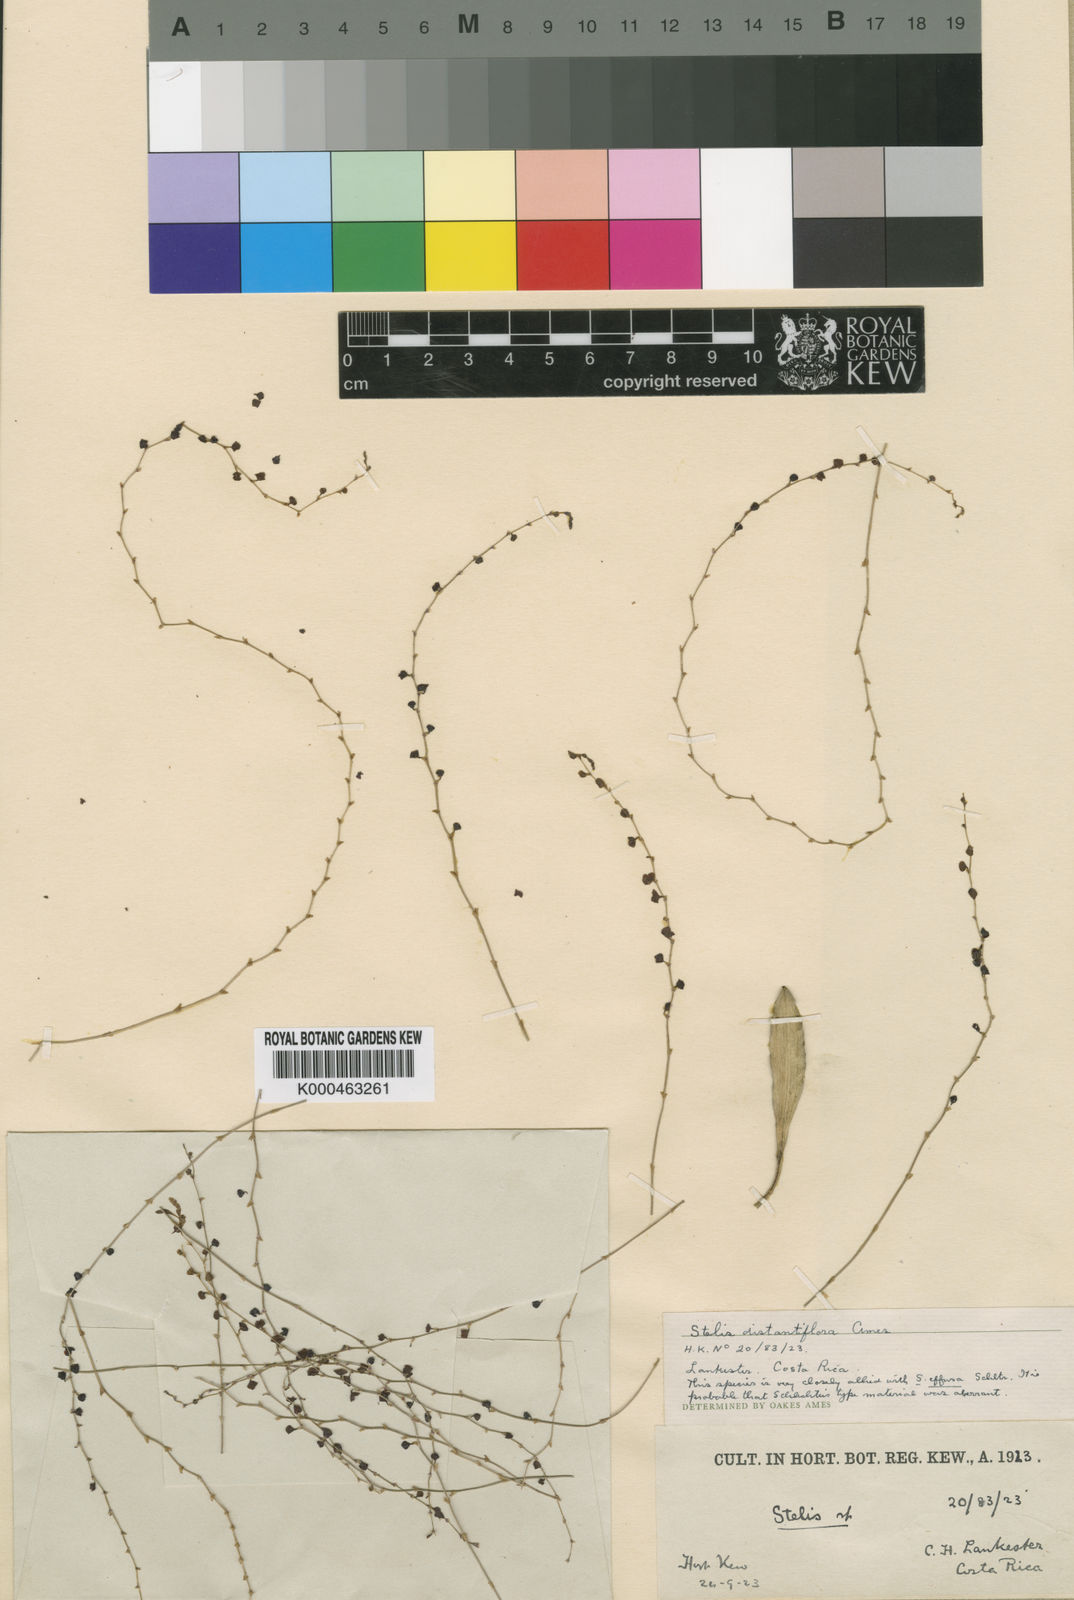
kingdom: Plantae
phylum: Tracheophyta
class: Liliopsida
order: Asparagales
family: Orchidaceae
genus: Stelis
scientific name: Stelis effusa
